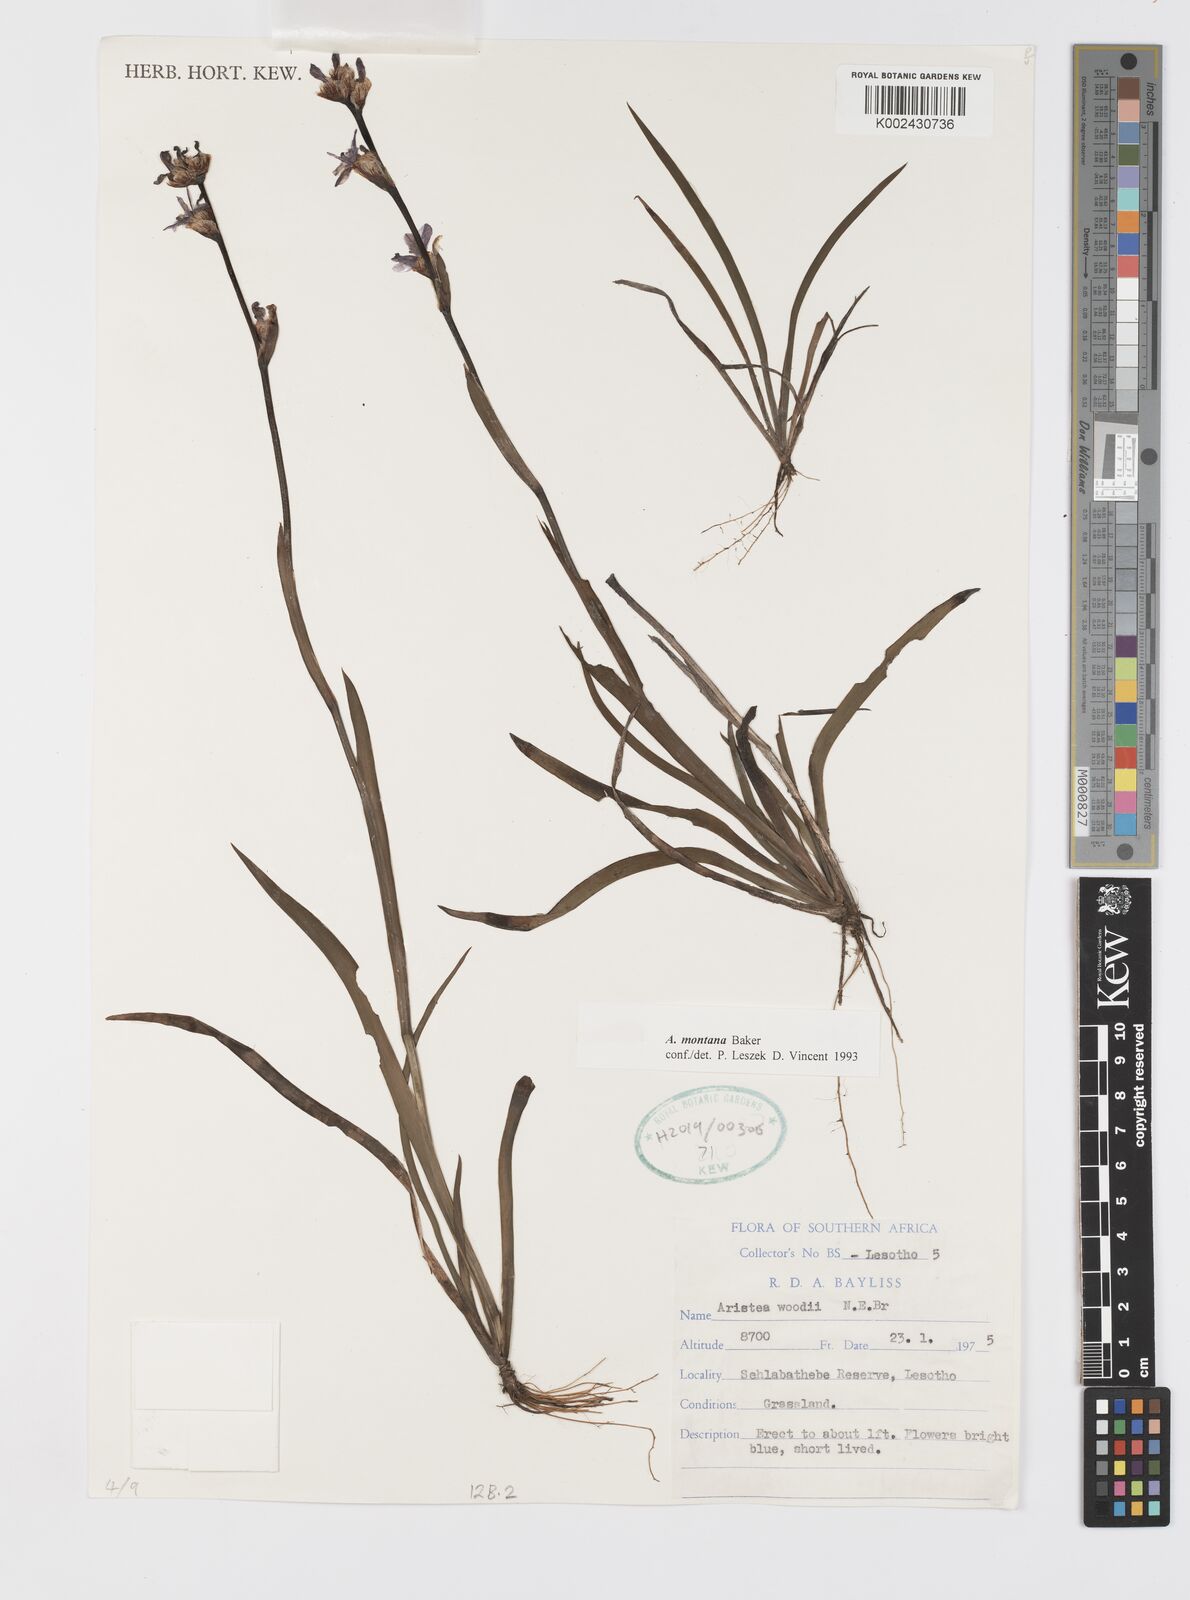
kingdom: Plantae
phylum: Tracheophyta
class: Liliopsida
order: Asparagales
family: Iridaceae
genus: Aristea
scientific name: Aristea montana
